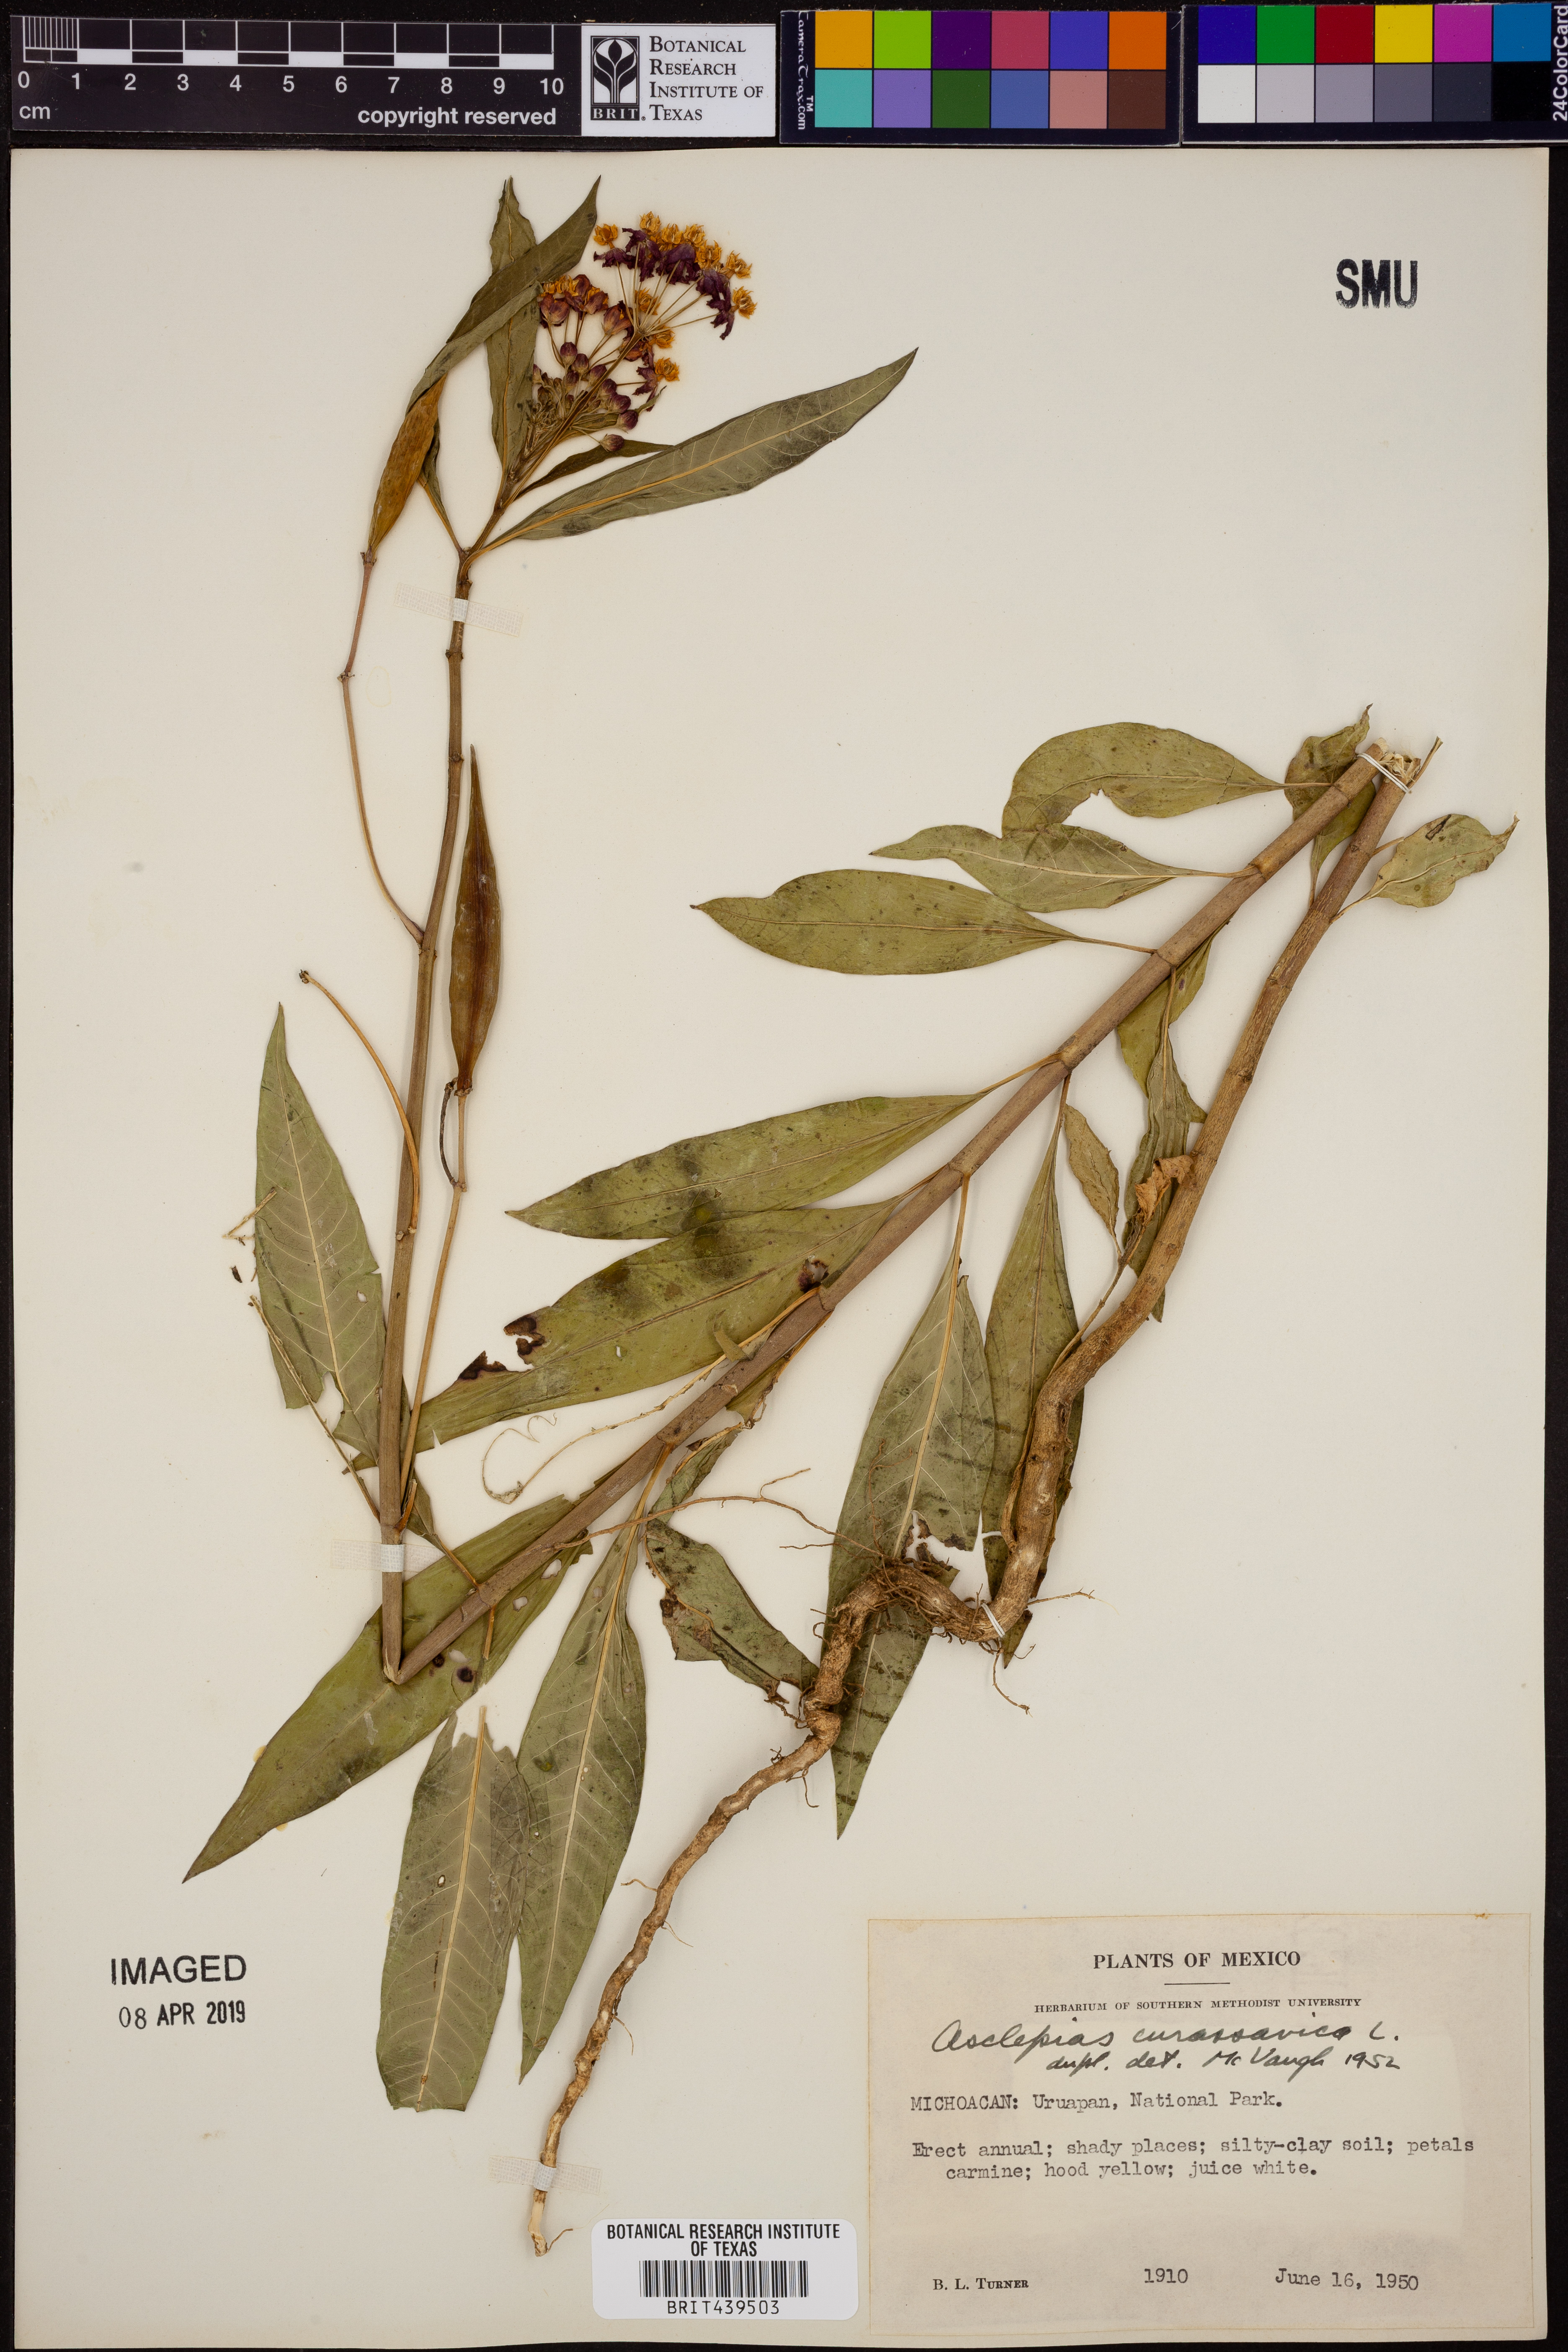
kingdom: Plantae
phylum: Tracheophyta
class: Magnoliopsida
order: Gentianales
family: Apocynaceae
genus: Asclepias
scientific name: Asclepias curassavica
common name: Bloodflower
